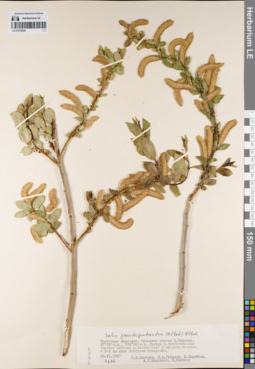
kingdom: Plantae
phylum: Tracheophyta
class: Magnoliopsida
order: Malpighiales
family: Salicaceae
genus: Salix
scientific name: Salix pseudopentandra
